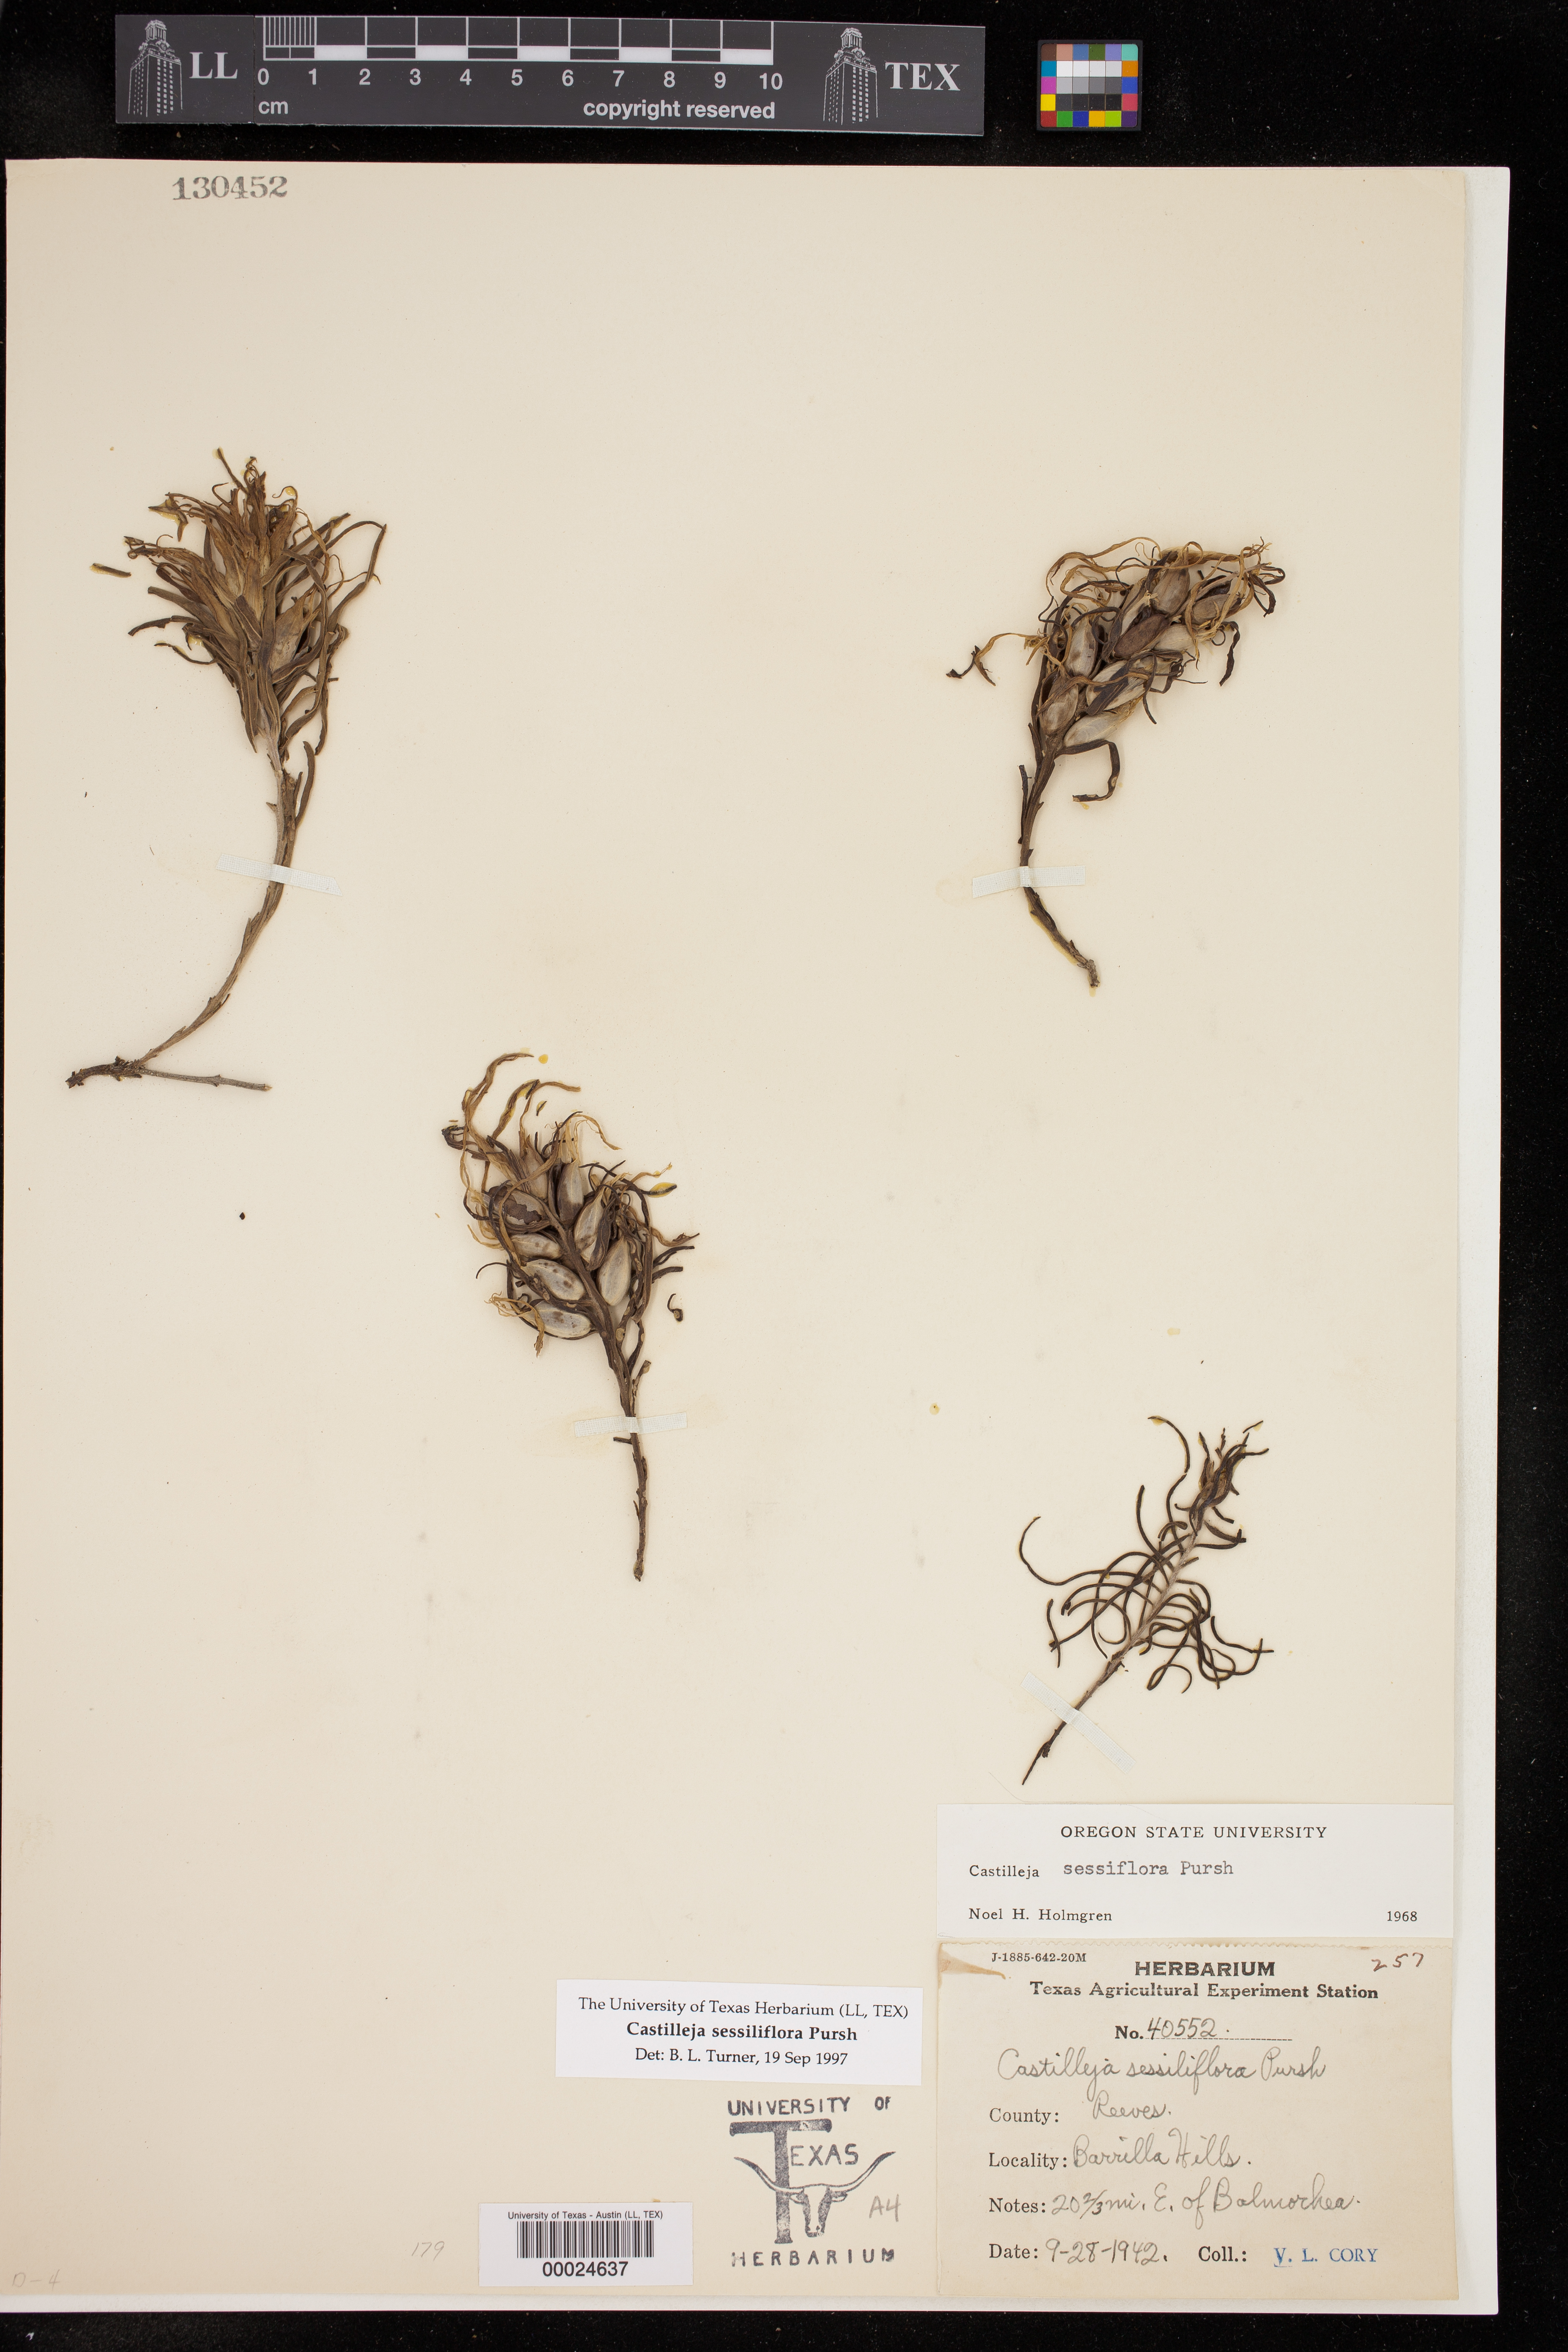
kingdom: Plantae
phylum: Tracheophyta
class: Magnoliopsida
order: Lamiales
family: Orobanchaceae
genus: Castilleja
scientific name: Castilleja sessiliflora
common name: Downy paintbrush
